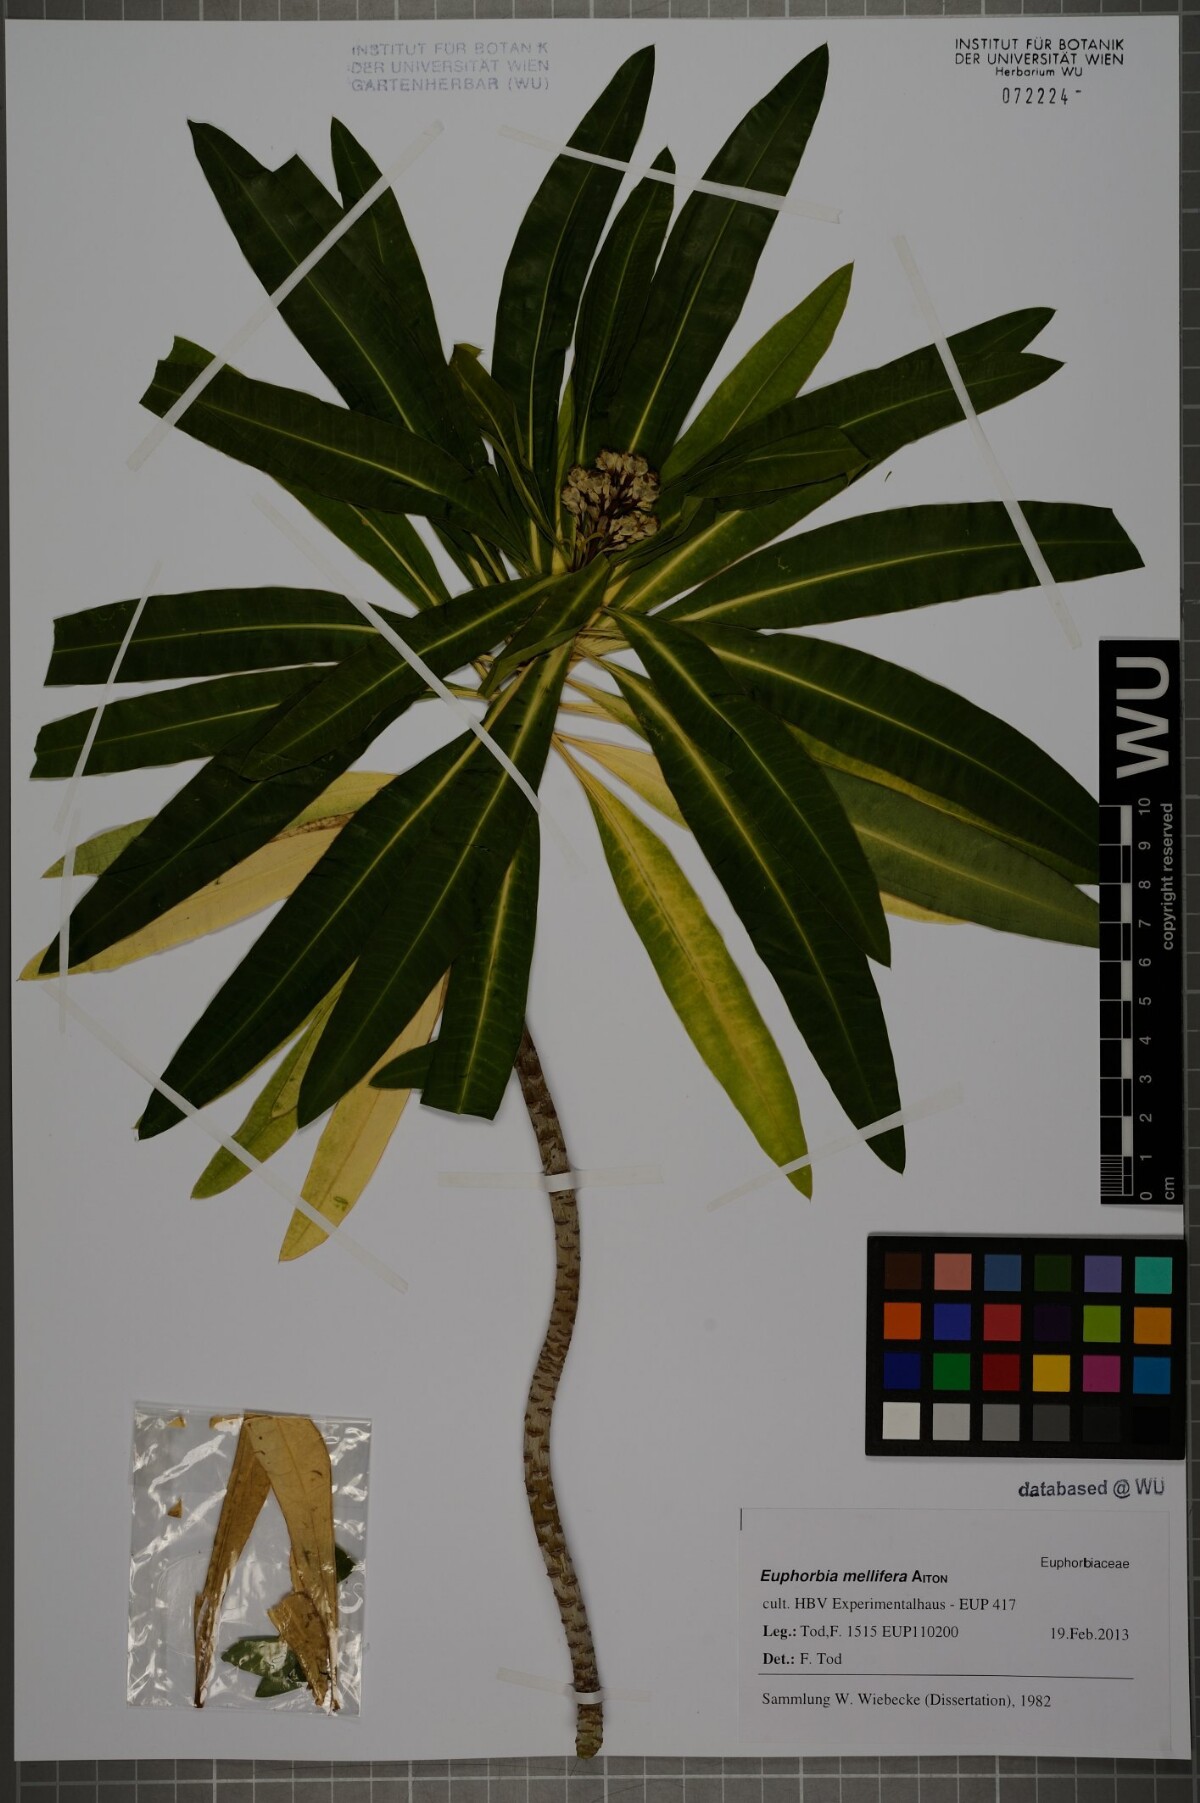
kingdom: Plantae
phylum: Tracheophyta
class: Magnoliopsida
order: Malpighiales
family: Euphorbiaceae
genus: Euphorbia
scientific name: Euphorbia mellifera
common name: Canary spurge
